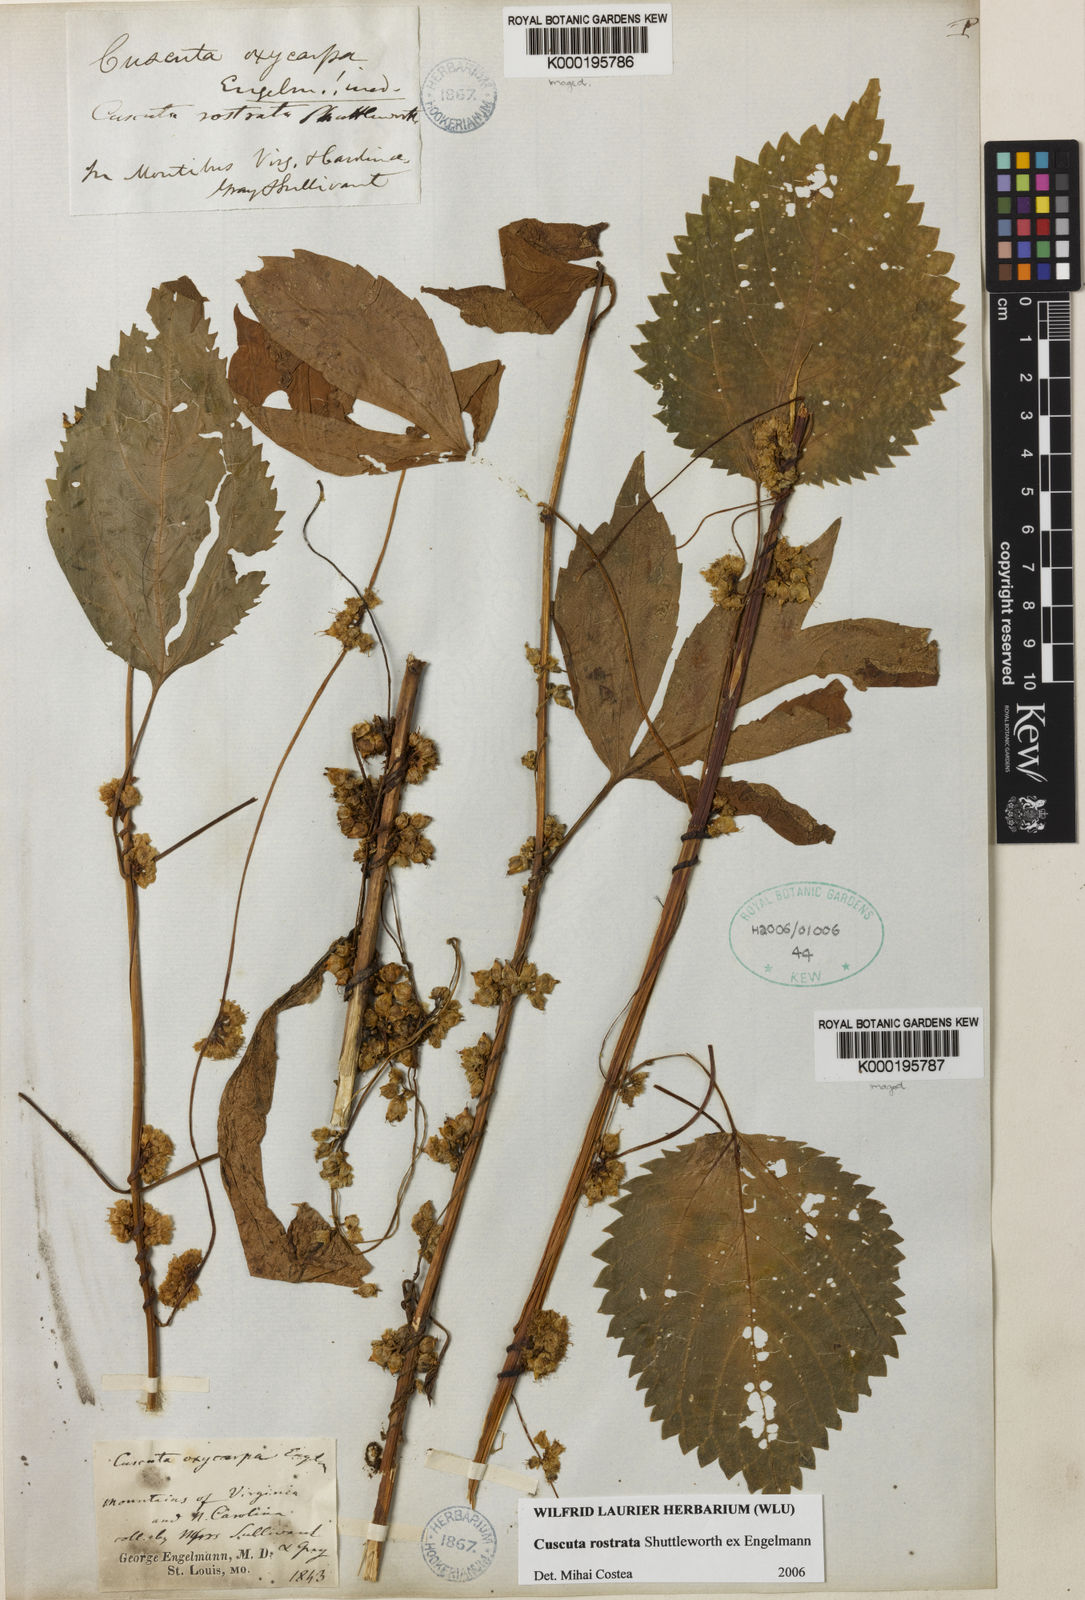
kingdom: Plantae
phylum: Tracheophyta
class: Magnoliopsida
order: Solanales
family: Convolvulaceae
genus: Cuscuta
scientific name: Cuscuta rostrata
